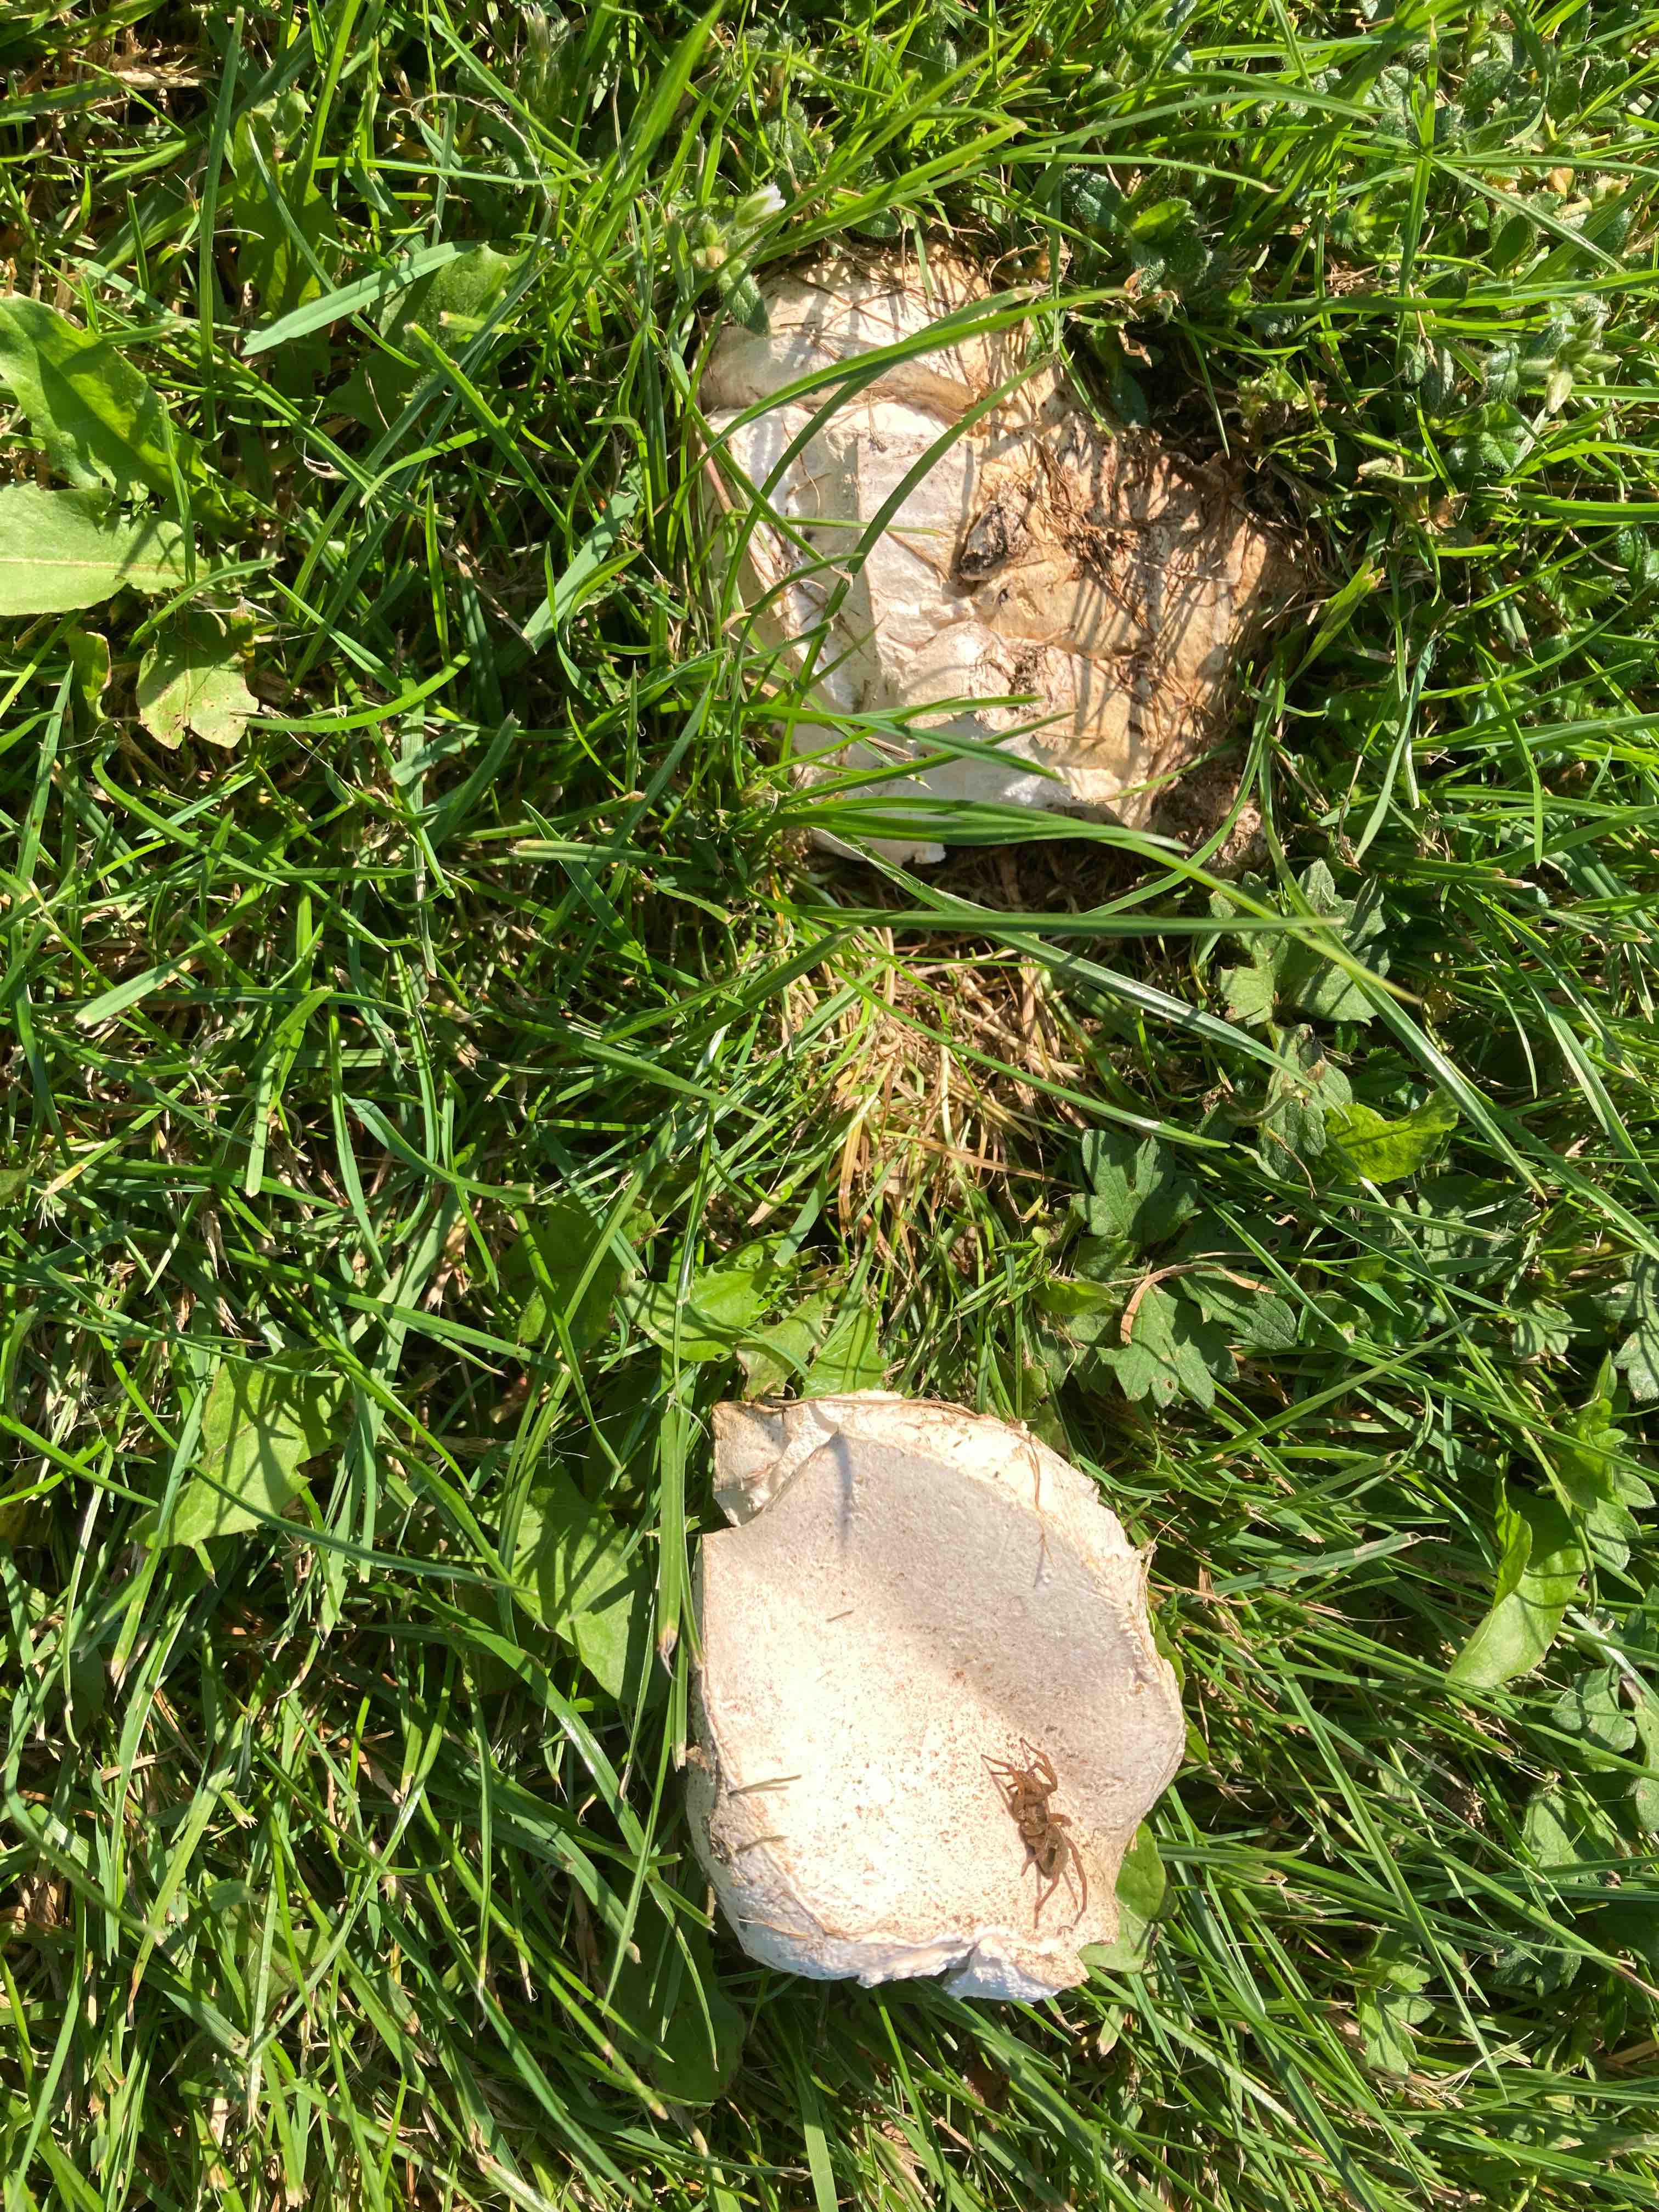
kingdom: Fungi
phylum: Basidiomycota
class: Agaricomycetes
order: Agaricales
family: Lycoperdaceae
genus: Calvatia
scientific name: Calvatia gigantea
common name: kæmpestøvbold
